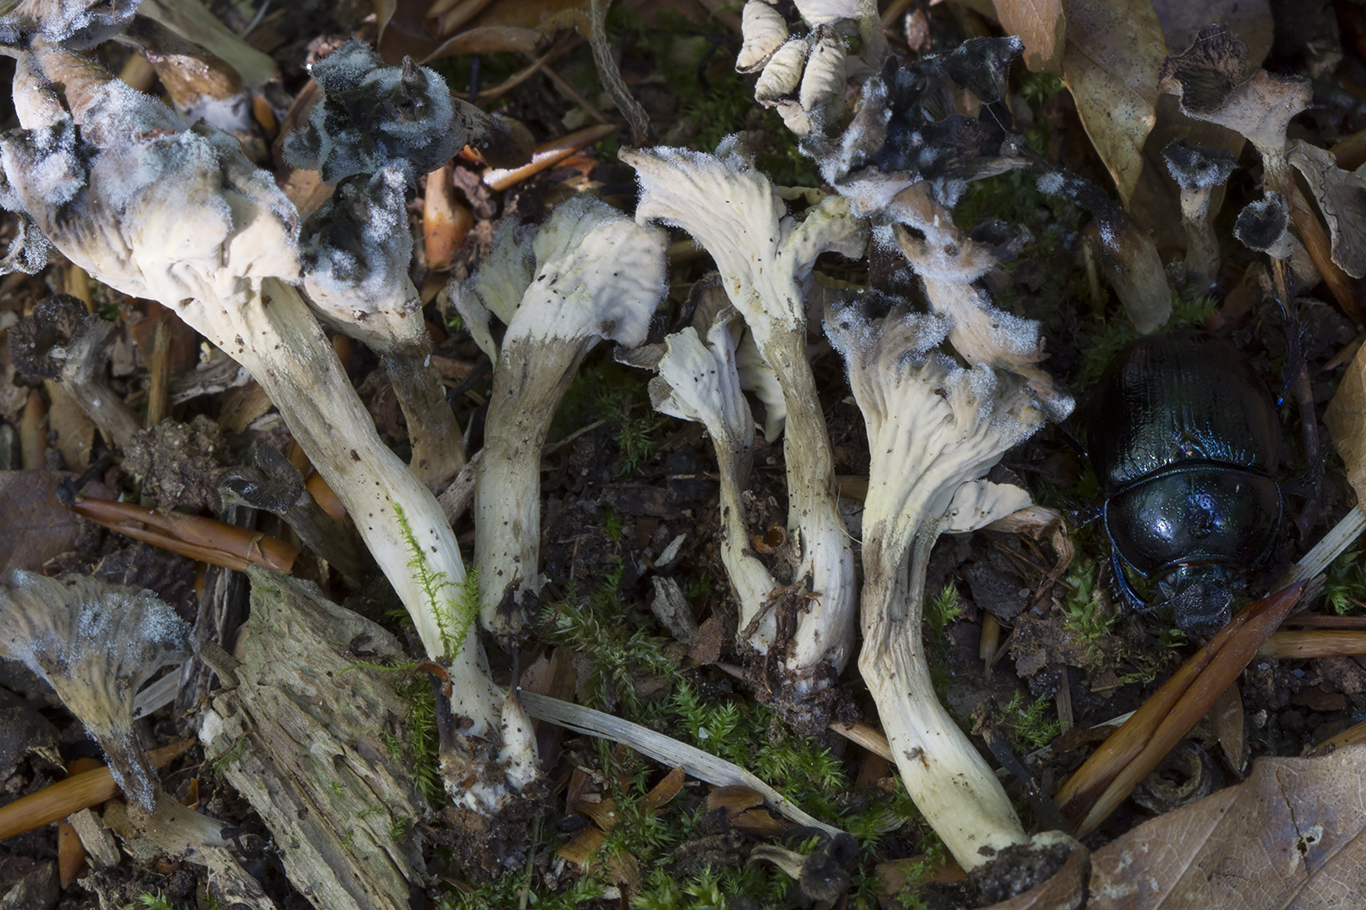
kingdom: Fungi
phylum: Basidiomycota
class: Agaricomycetes
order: Cantharellales
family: Hydnaceae
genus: Craterellus
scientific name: Craterellus undulatus
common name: liden kantarel
